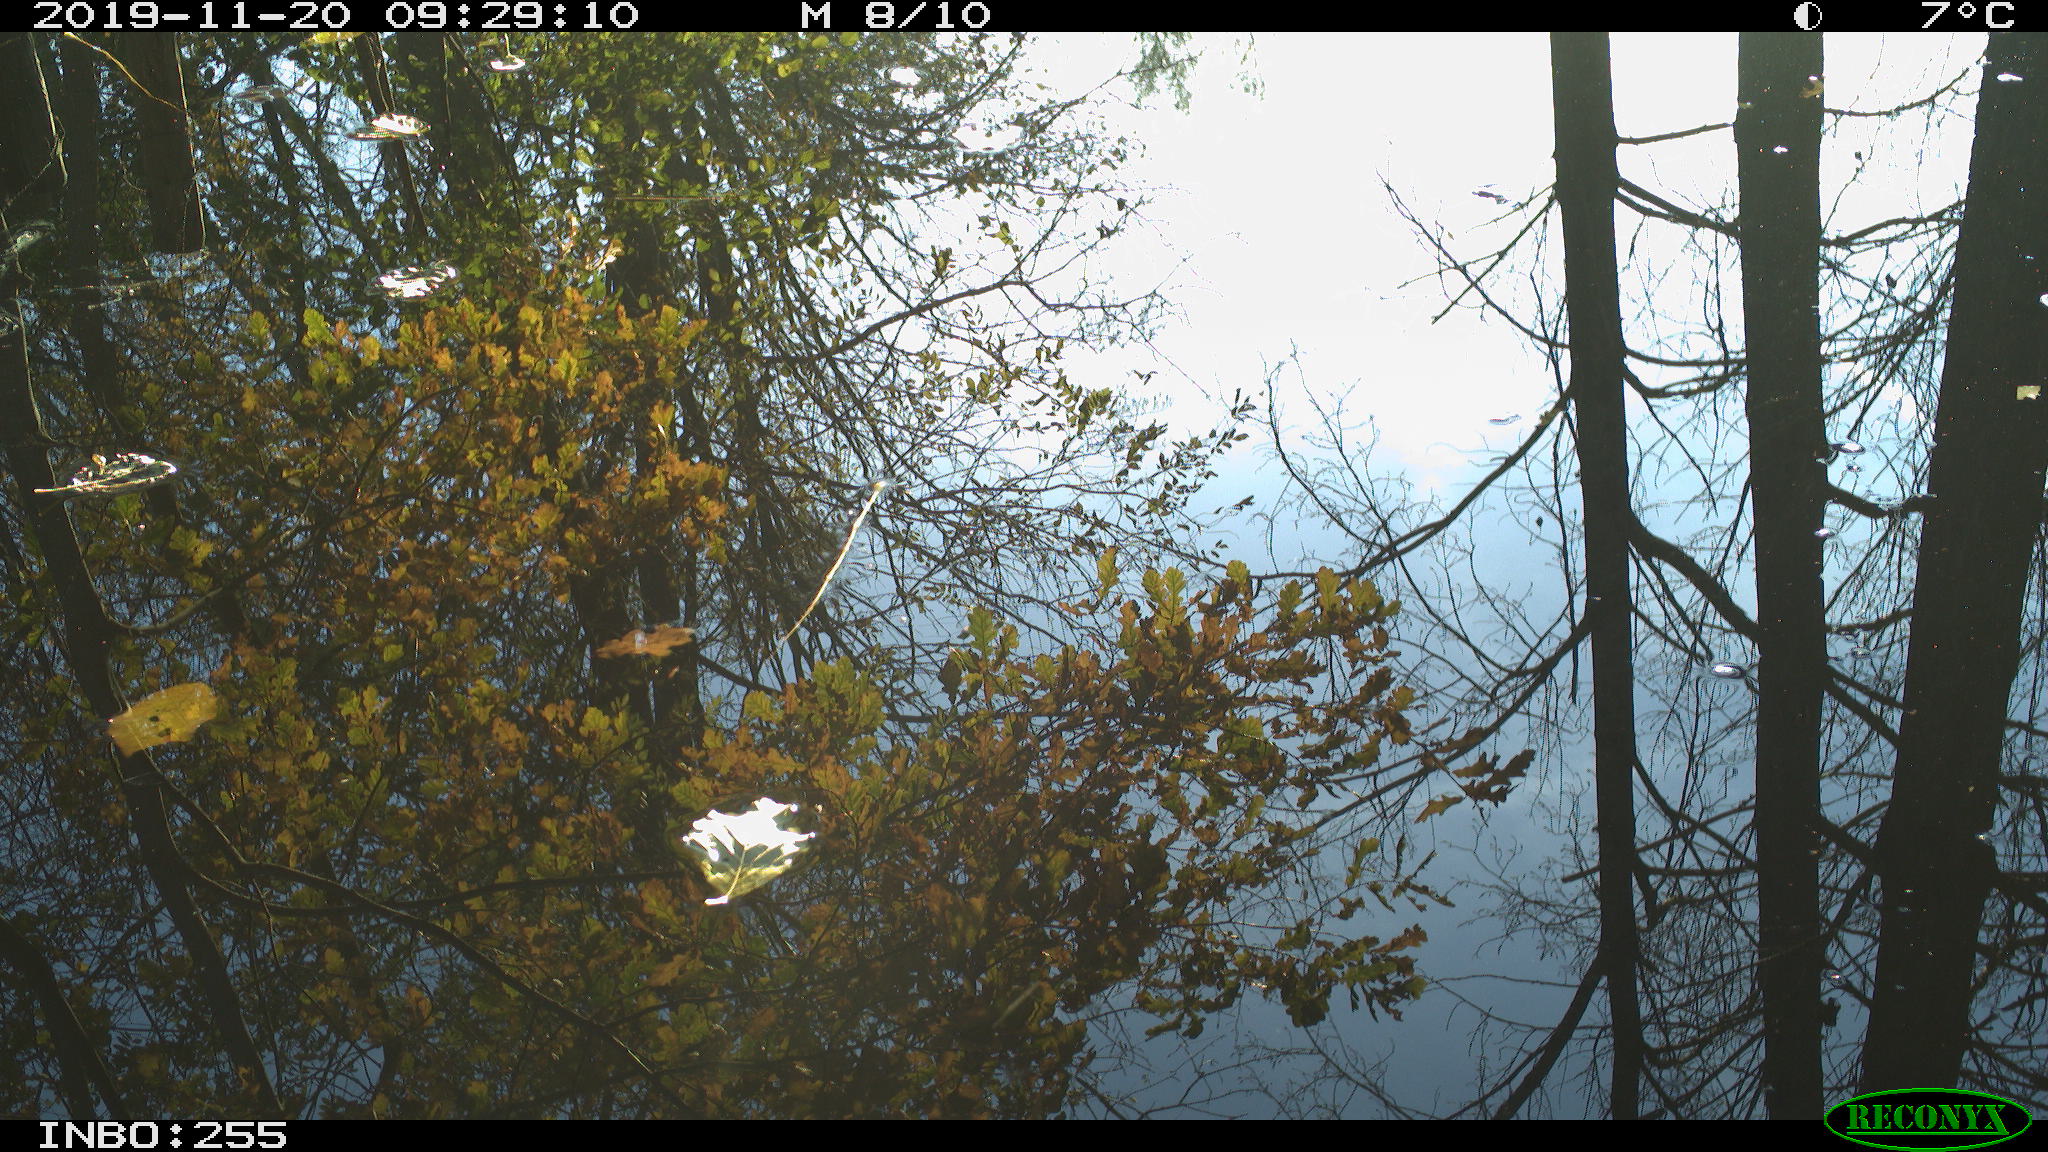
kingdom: Animalia
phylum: Chordata
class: Aves
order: Passeriformes
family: Paridae
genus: Parus
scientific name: Parus major
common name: Great tit
